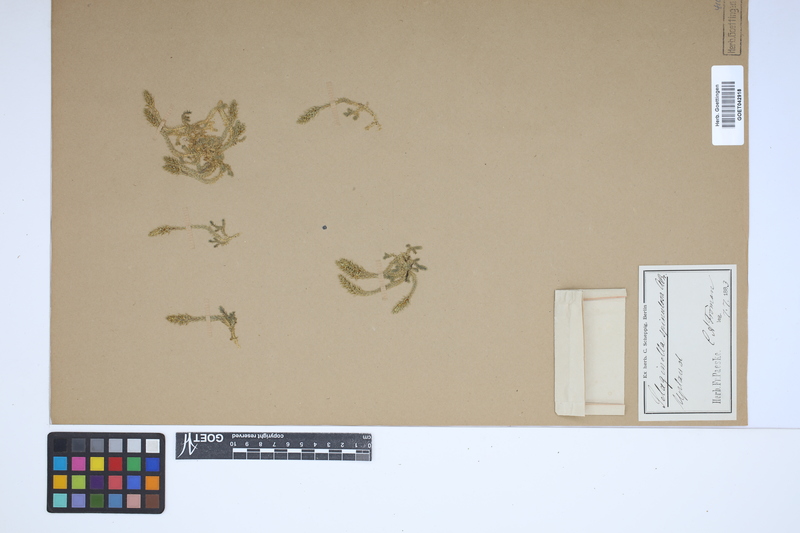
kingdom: Plantae
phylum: Tracheophyta
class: Lycopodiopsida
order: Selaginellales
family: Selaginellaceae
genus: Selaginella
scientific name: Selaginella selaginoides
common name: Prickly mountain-moss
